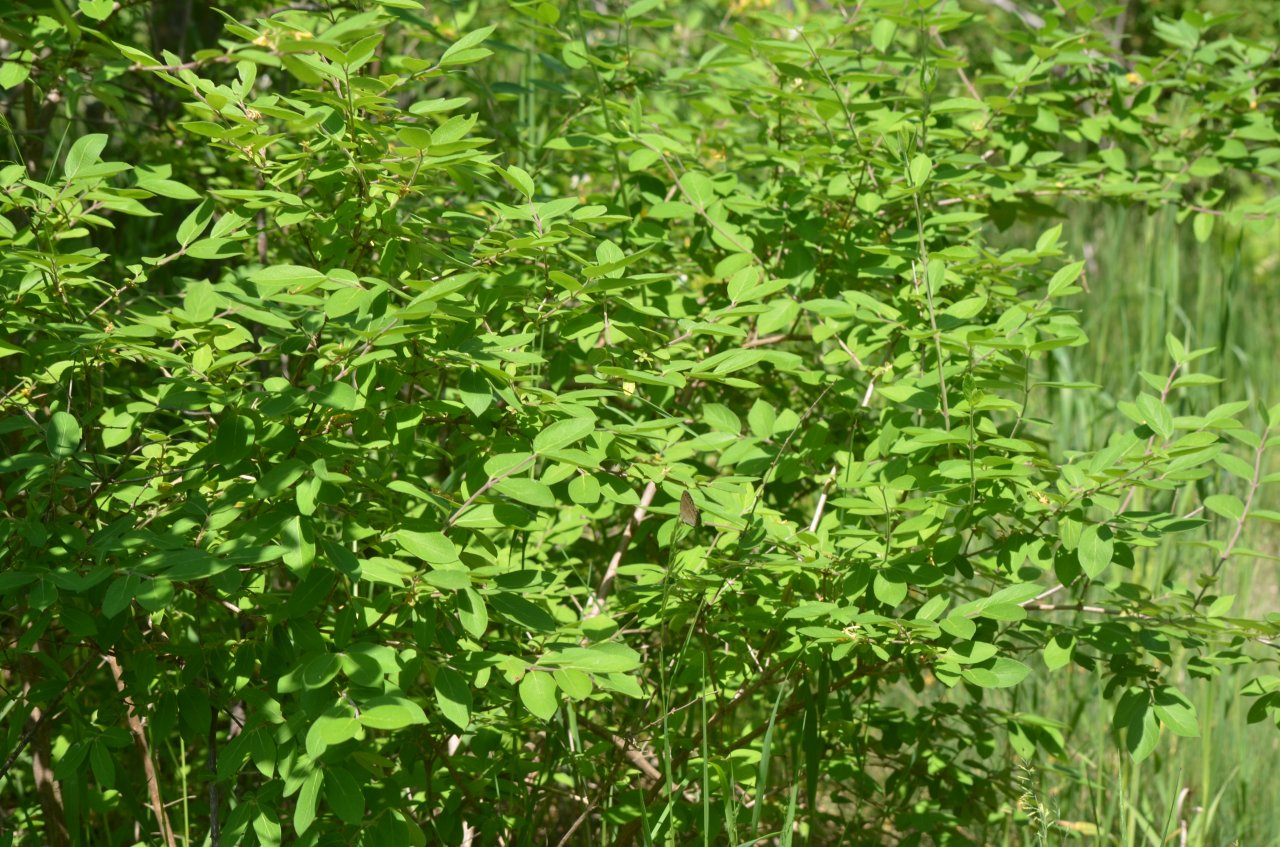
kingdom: Animalia
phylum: Arthropoda
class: Insecta
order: Lepidoptera
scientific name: Lepidoptera
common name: Butterflies
